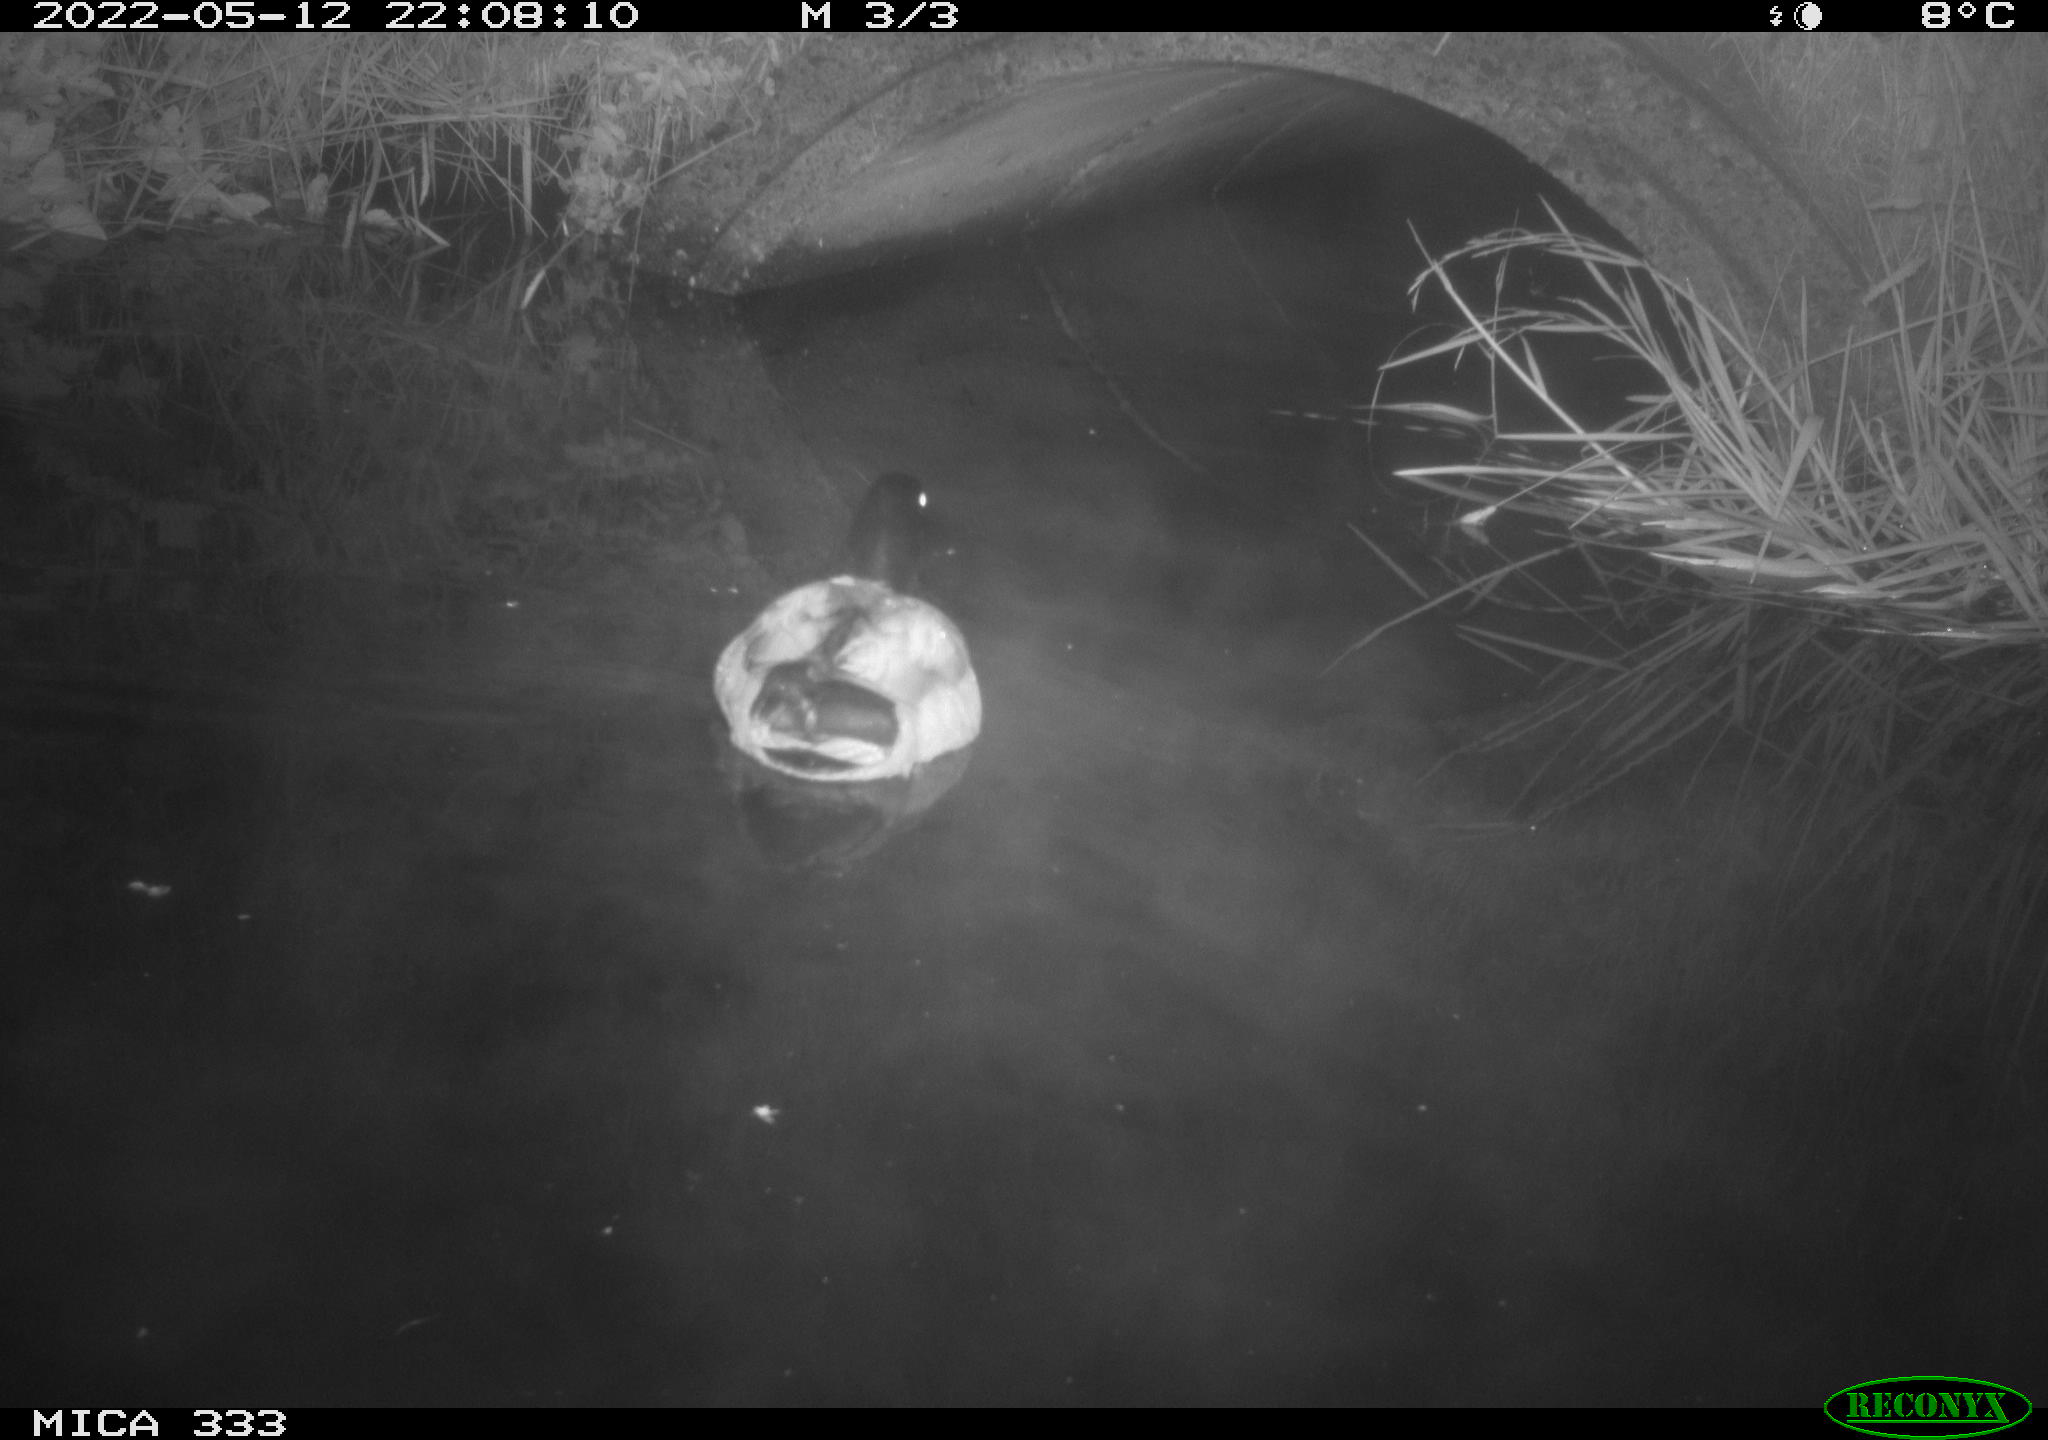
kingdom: Animalia
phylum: Chordata
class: Aves
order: Anseriformes
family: Anatidae
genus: Anas
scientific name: Anas platyrhynchos
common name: Mallard
